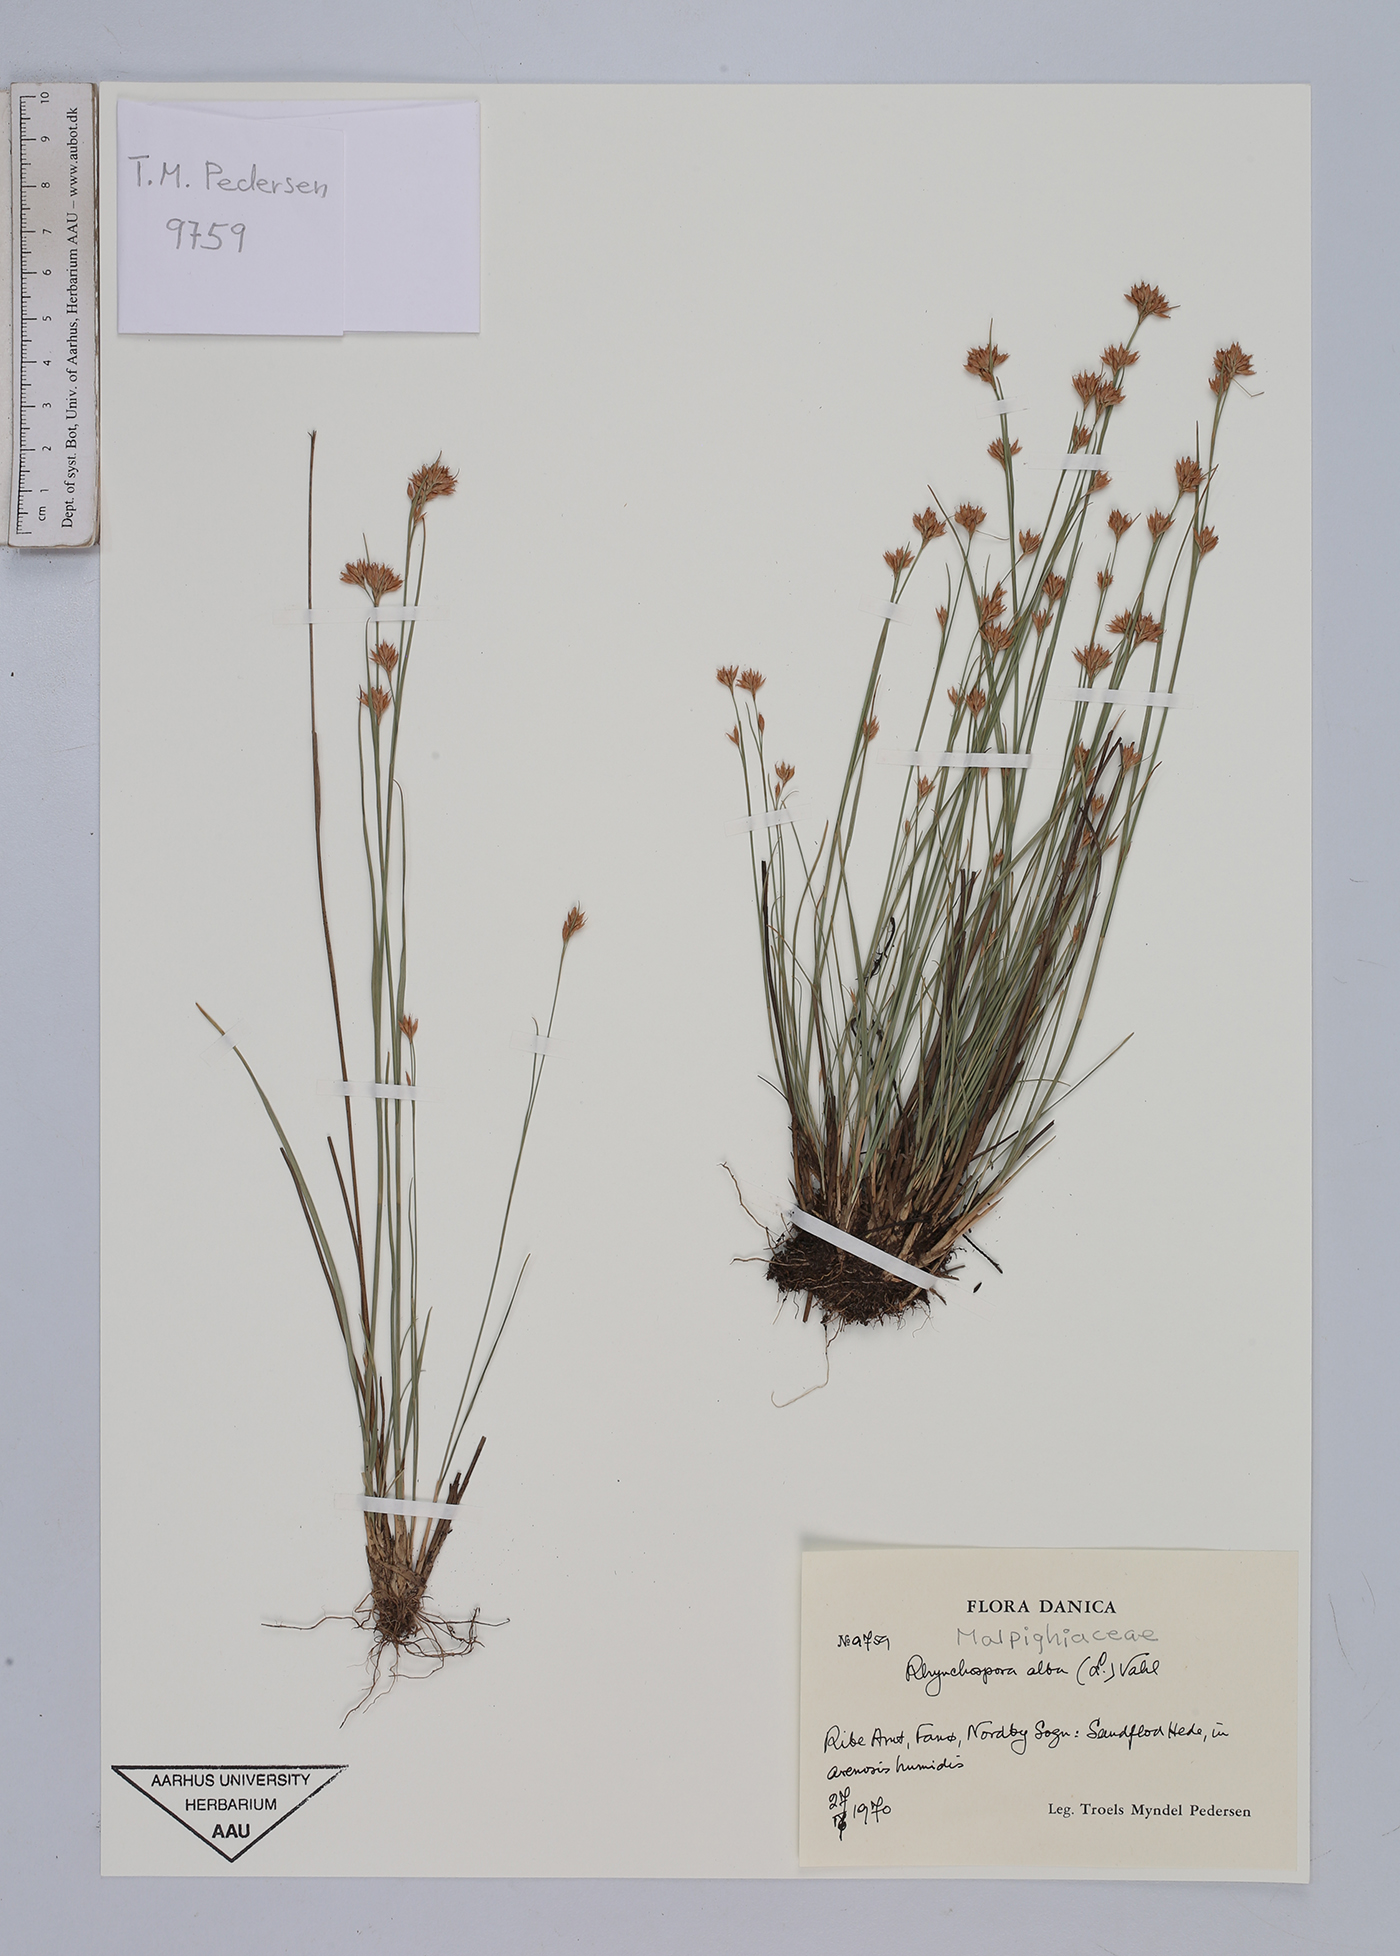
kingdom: Plantae
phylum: Tracheophyta
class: Liliopsida
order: Poales
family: Cyperaceae
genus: Rhynchospora
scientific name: Rhynchospora alba
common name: White beak-sedge
